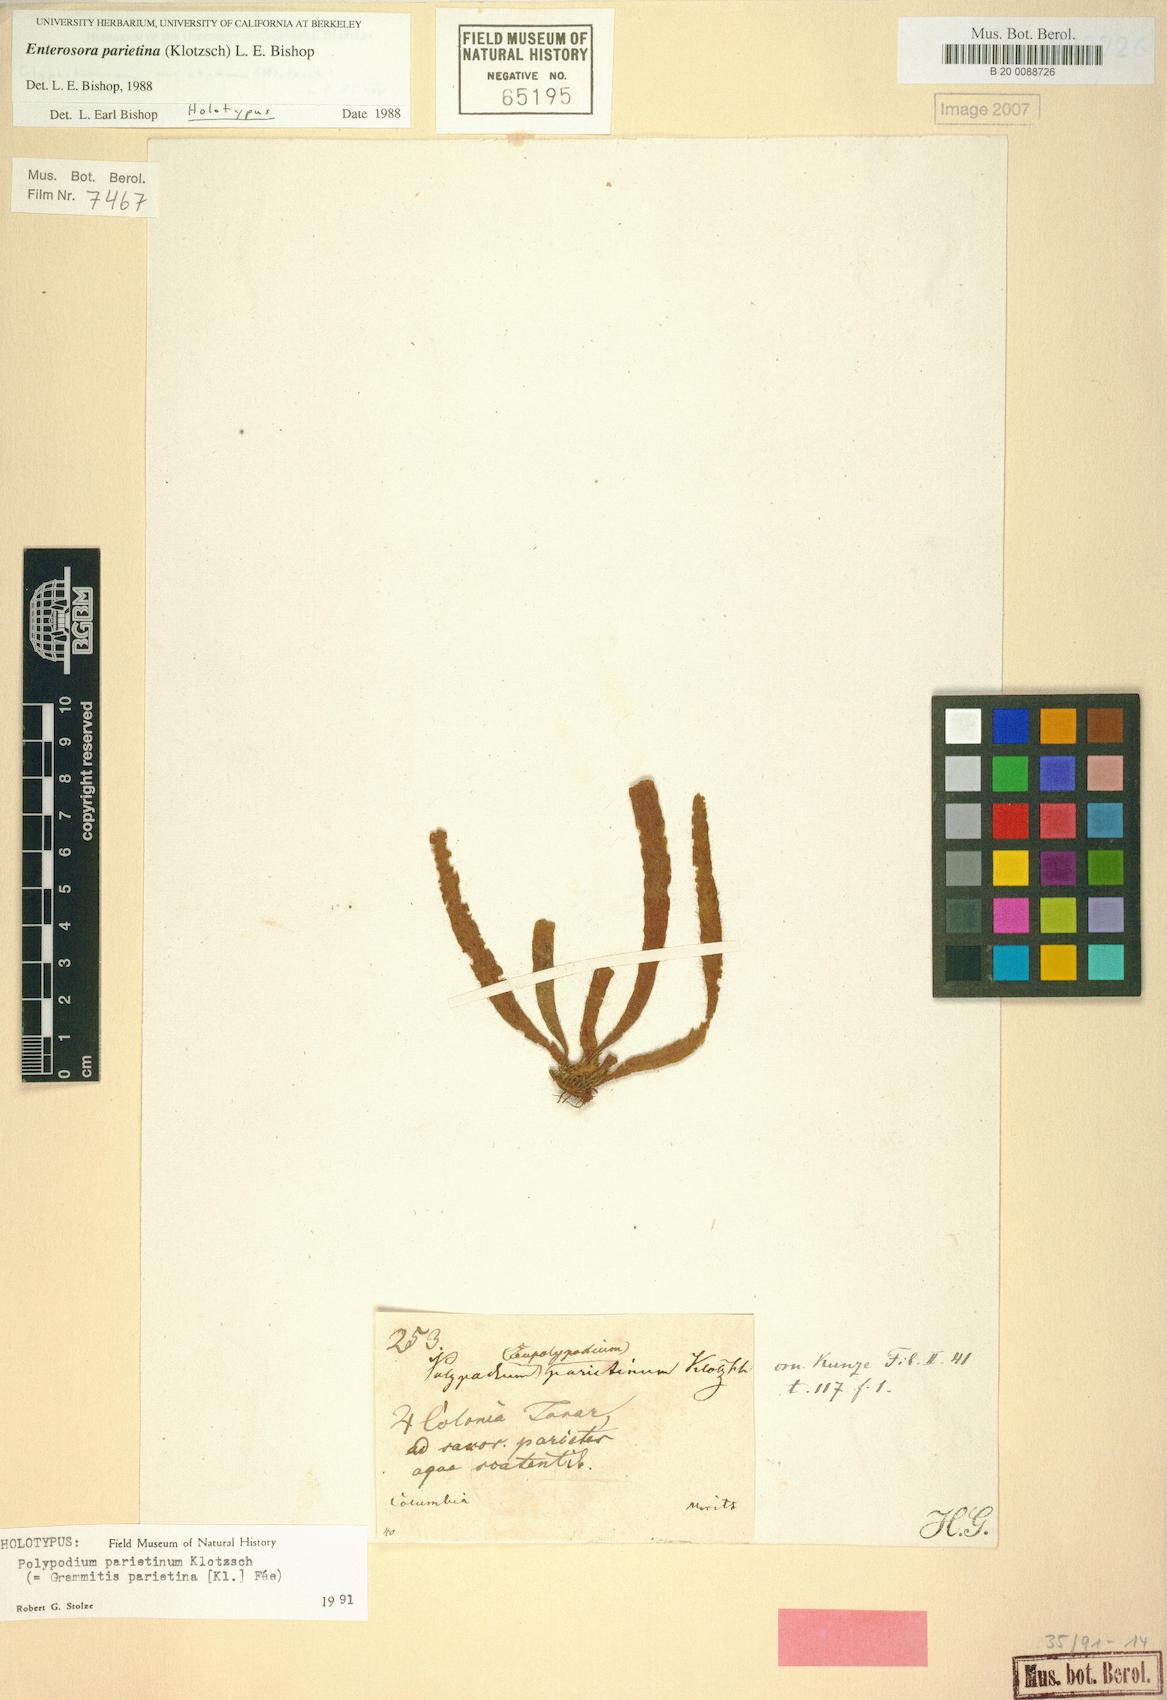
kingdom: Plantae
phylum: Tracheophyta
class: Polypodiopsida
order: Polypodiales
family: Polypodiaceae
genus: Parrisia
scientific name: Parrisia parietina
